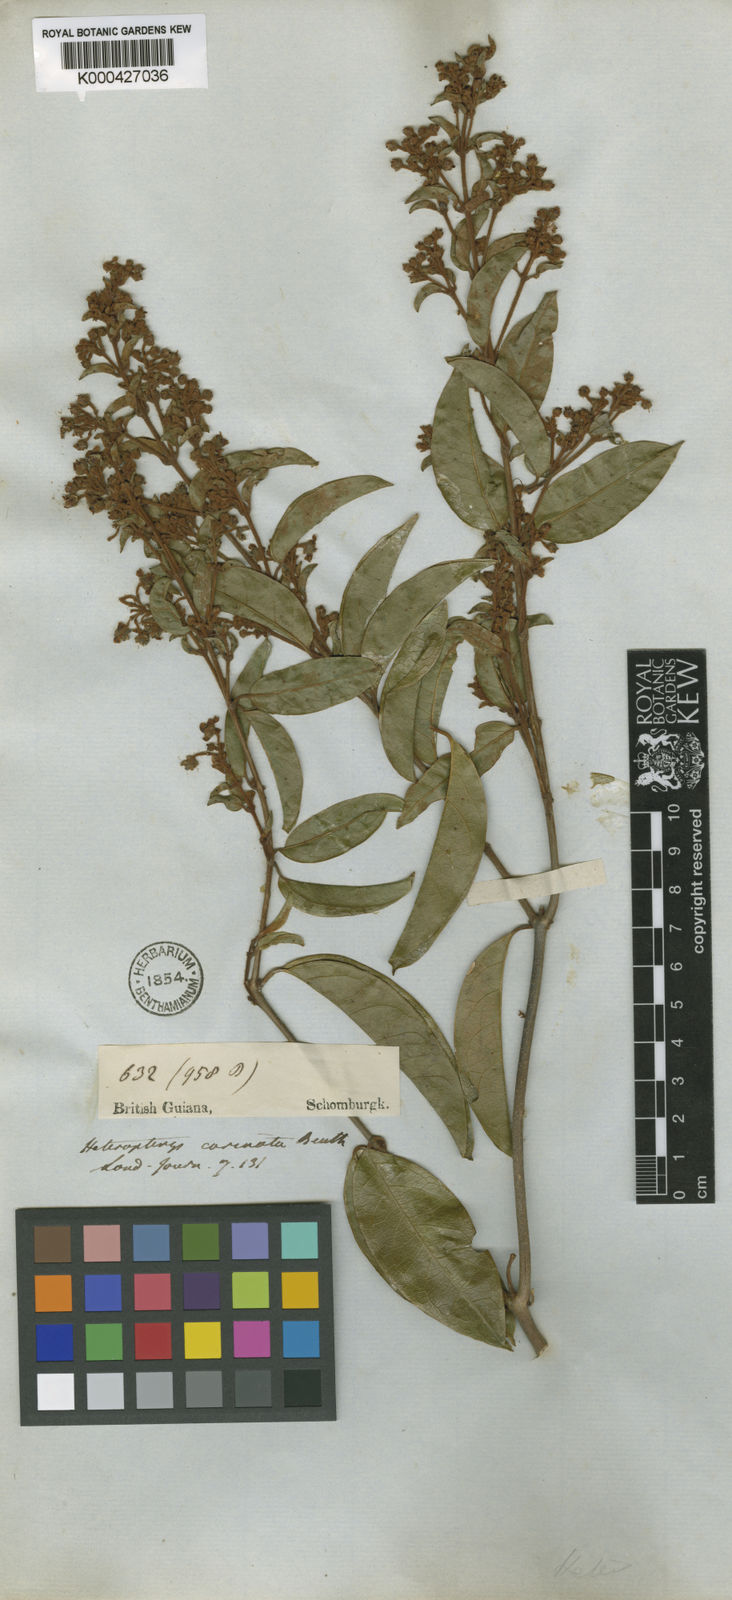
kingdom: Plantae
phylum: Tracheophyta
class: Magnoliopsida
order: Malpighiales
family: Malpighiaceae
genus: Heteropterys
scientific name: Heteropterys cristata
